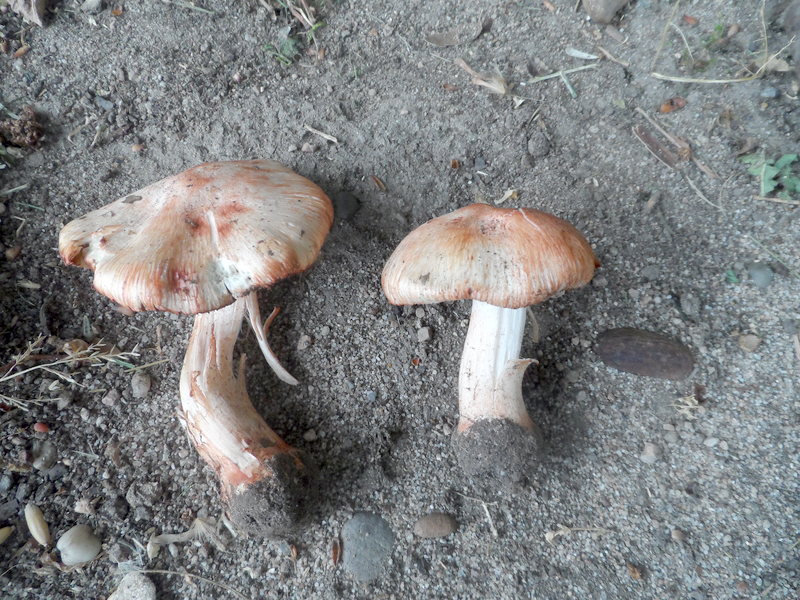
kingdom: Fungi
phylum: Basidiomycota
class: Agaricomycetes
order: Agaricales
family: Inocybaceae
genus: Inosperma
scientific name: Inosperma erubescens
